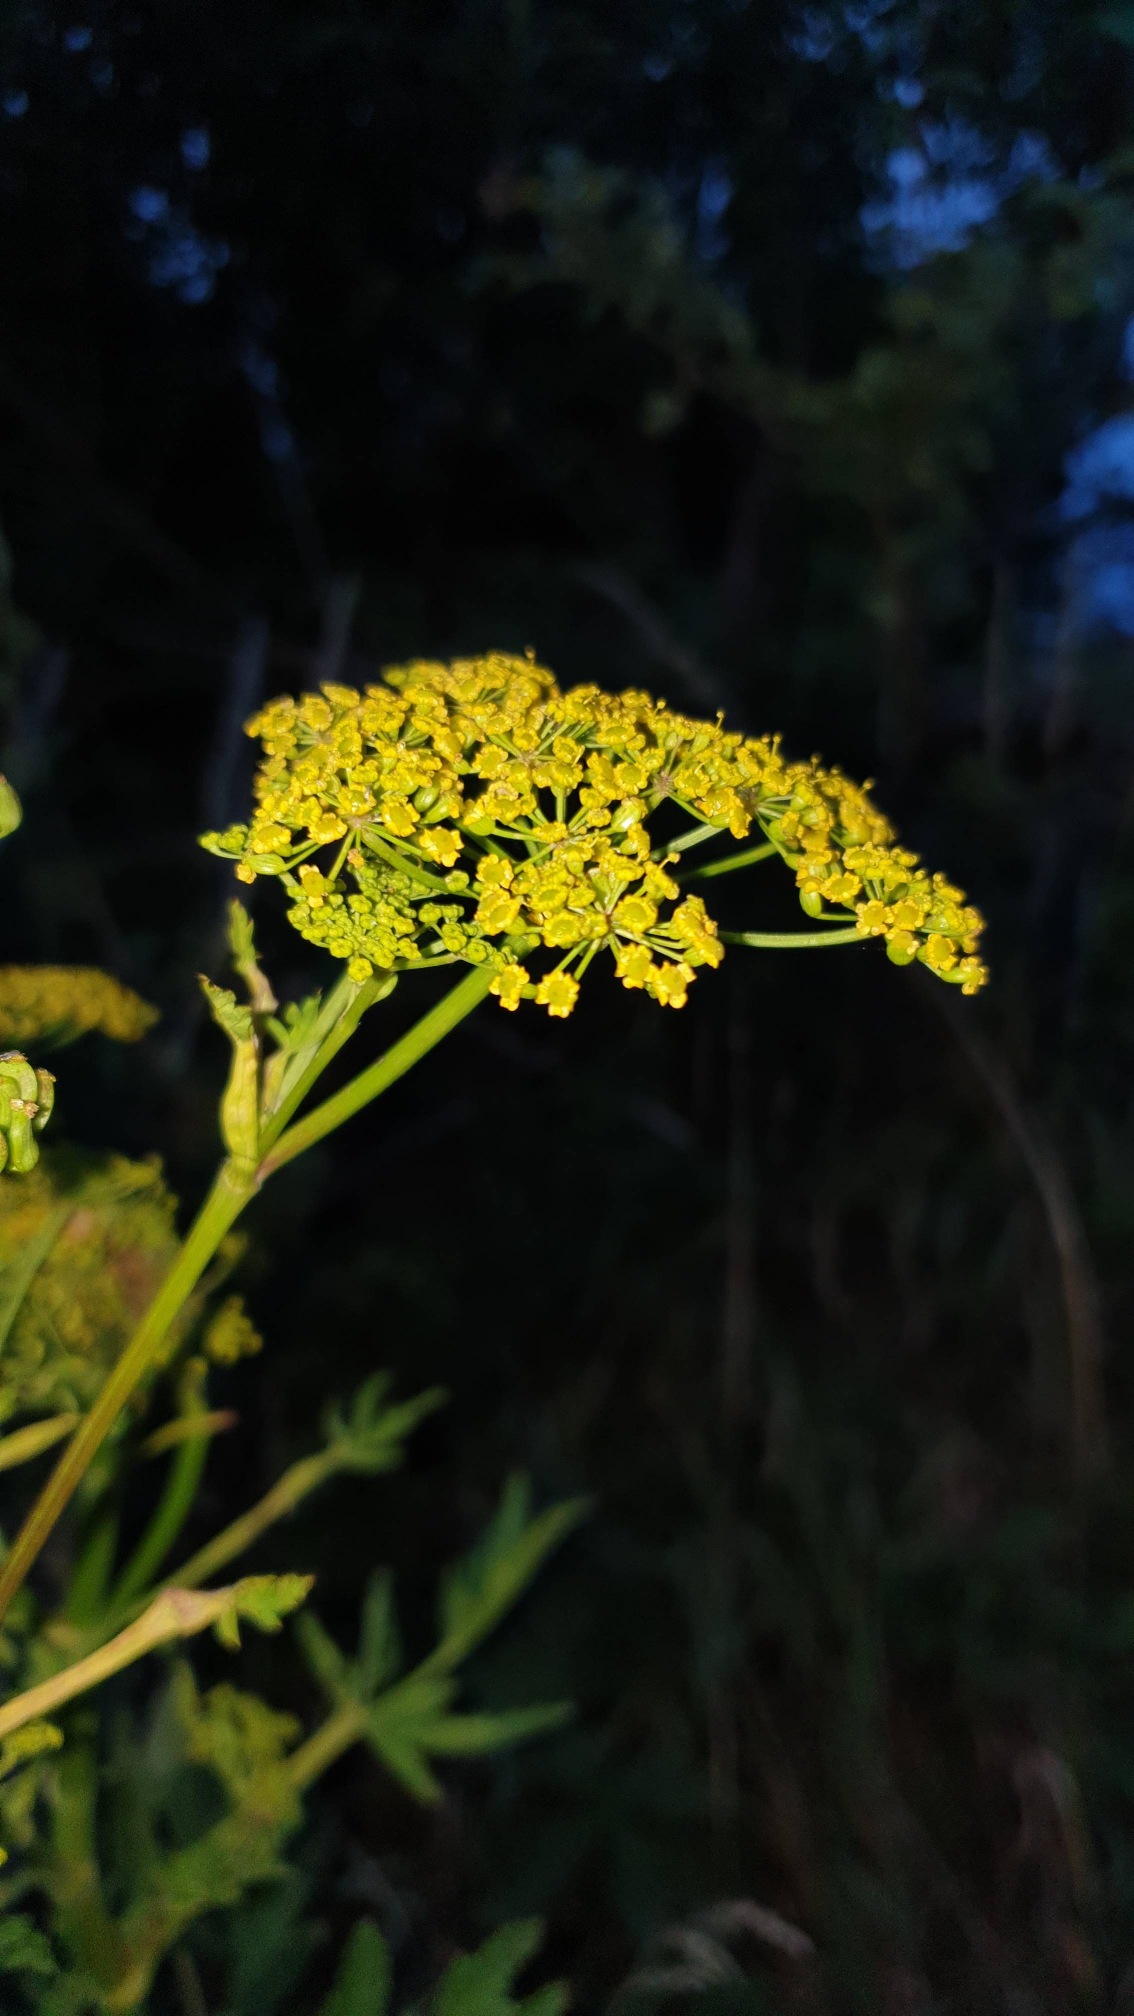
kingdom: Plantae
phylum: Tracheophyta
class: Magnoliopsida
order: Apiales
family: Apiaceae
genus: Pastinaca
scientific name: Pastinaca sativa
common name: Pastinak
